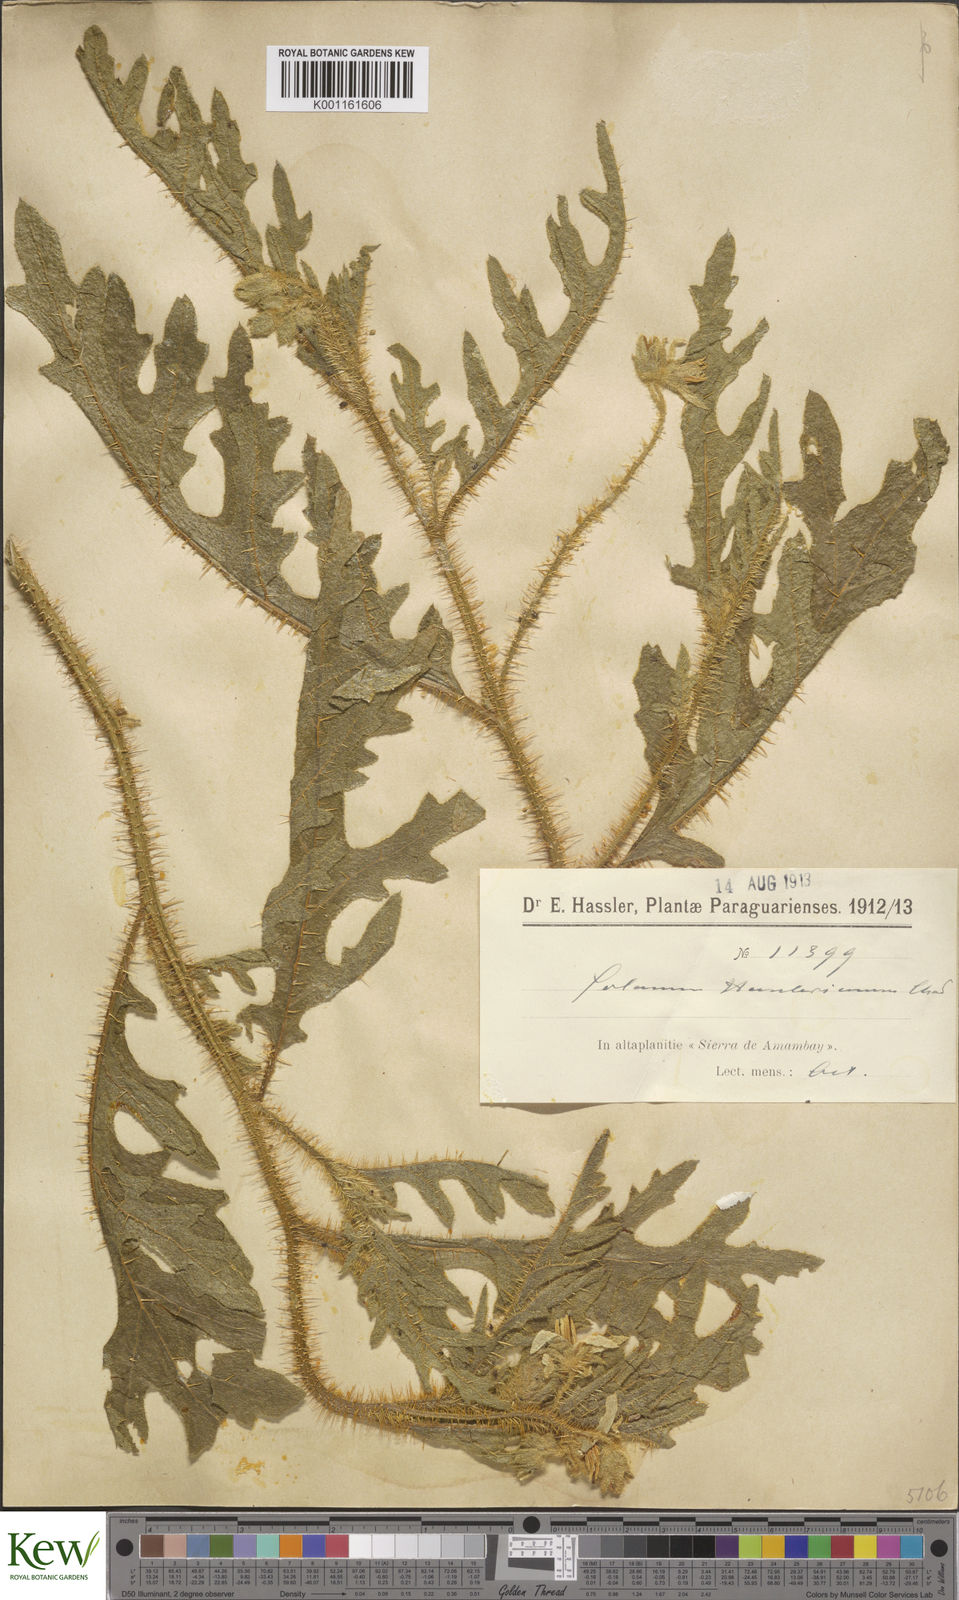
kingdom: Plantae
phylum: Tracheophyta
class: Magnoliopsida
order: Solanales
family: Solanaceae
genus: Solanum
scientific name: Solanum hasslerianum
